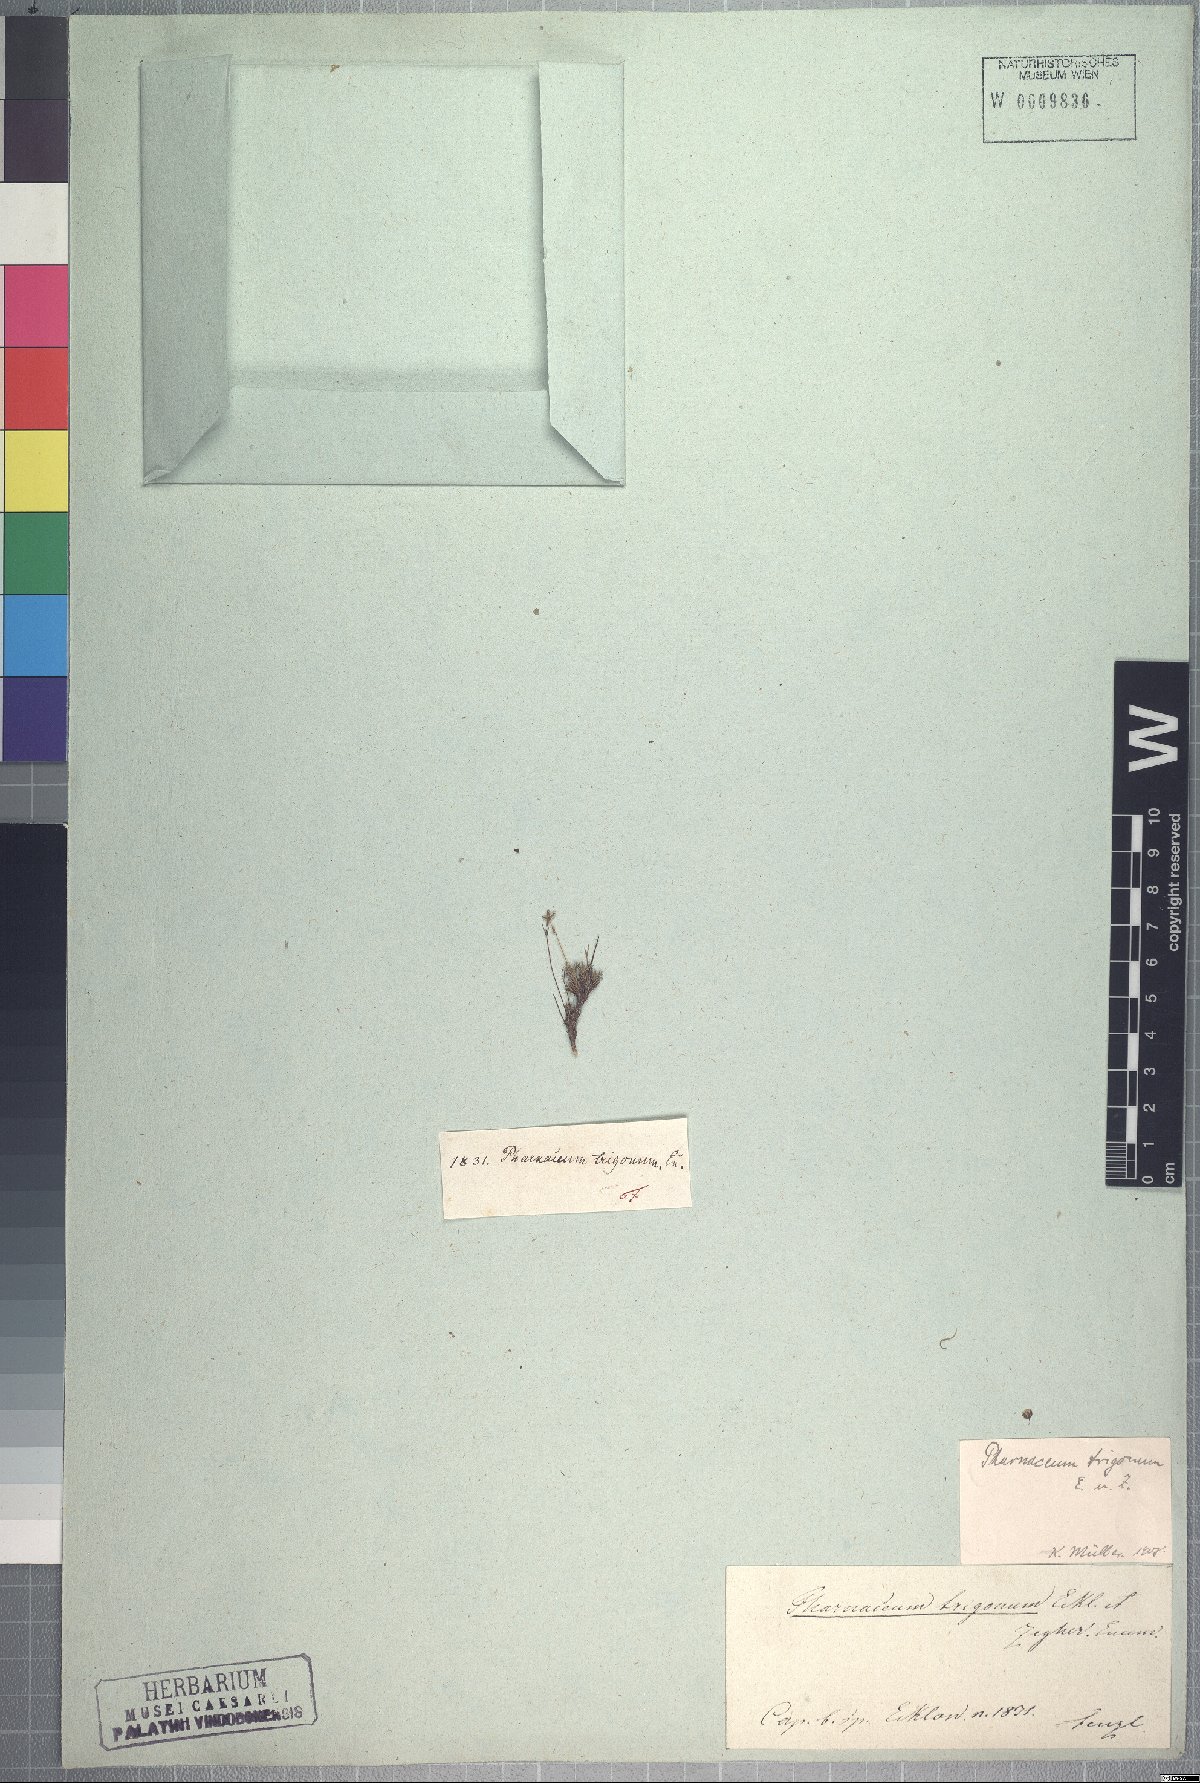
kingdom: Plantae
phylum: Tracheophyta
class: Magnoliopsida
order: Caryophyllales
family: Molluginaceae
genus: Pharnaceum
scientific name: Pharnaceum trigonum
